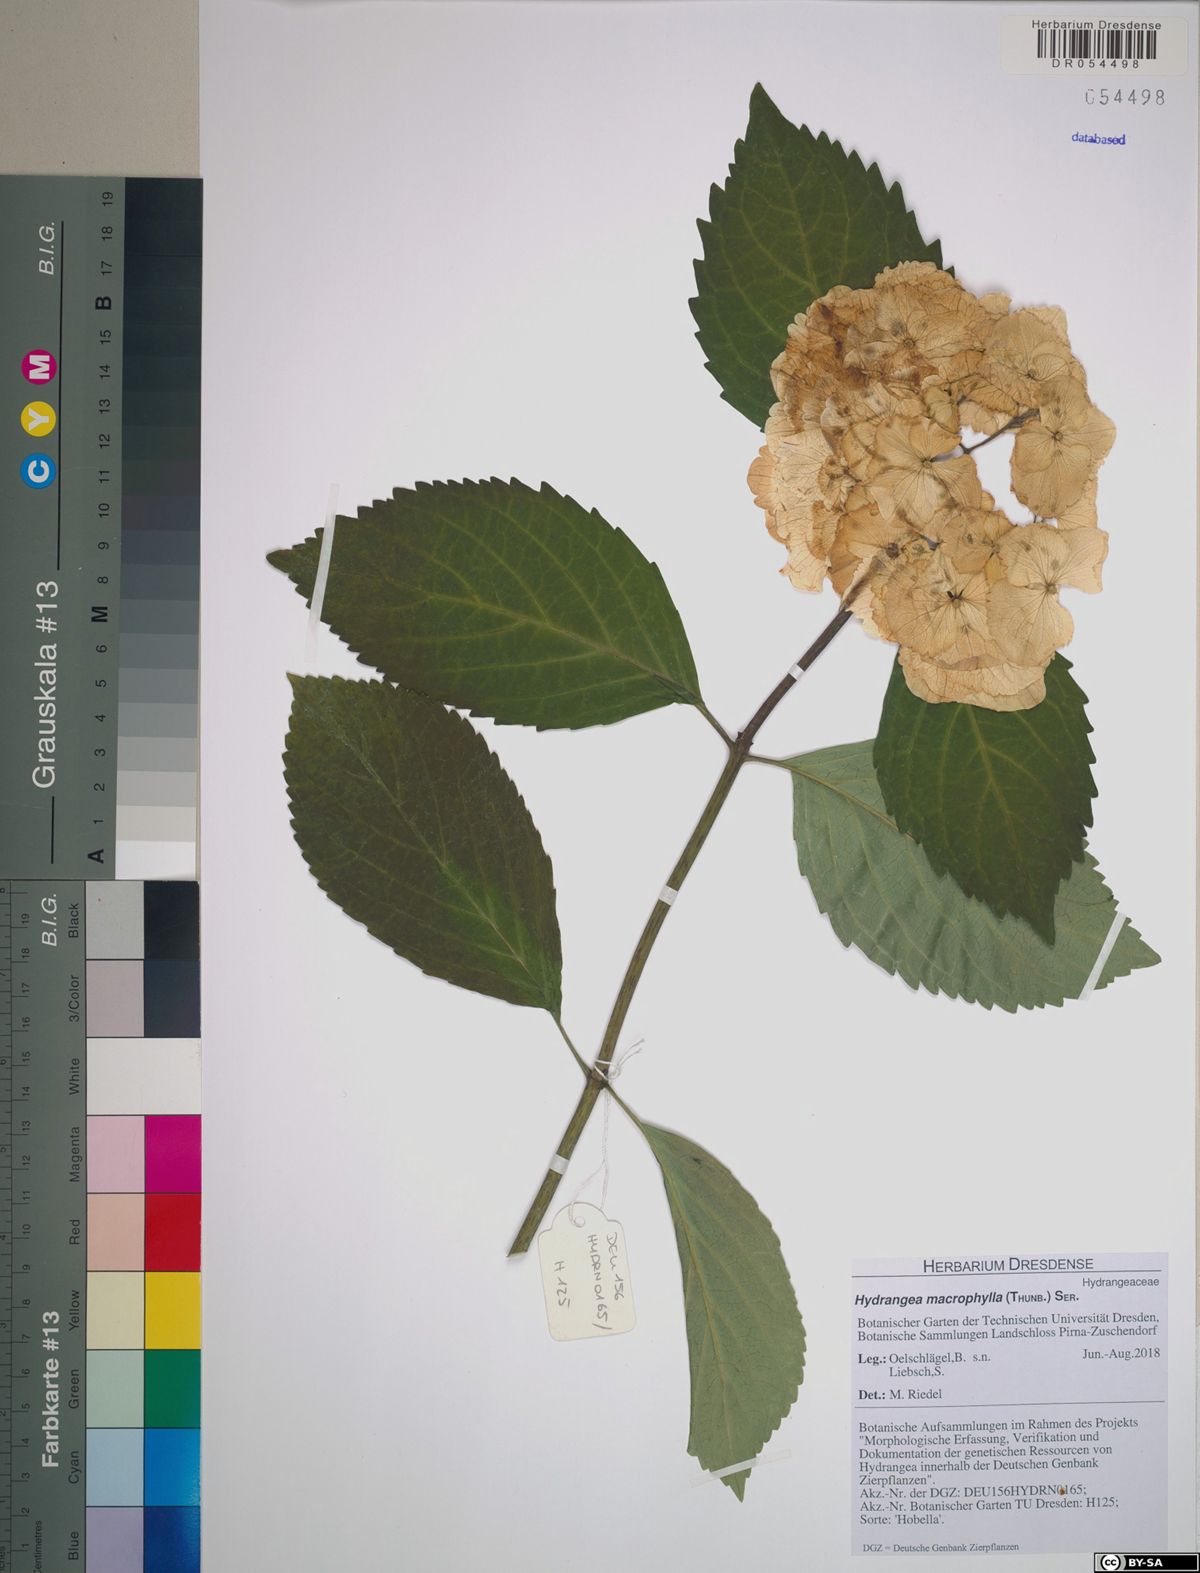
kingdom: Plantae
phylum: Tracheophyta
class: Magnoliopsida
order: Cornales
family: Hydrangeaceae
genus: Hydrangea
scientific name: Hydrangea macrophylla
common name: Hydrangea
